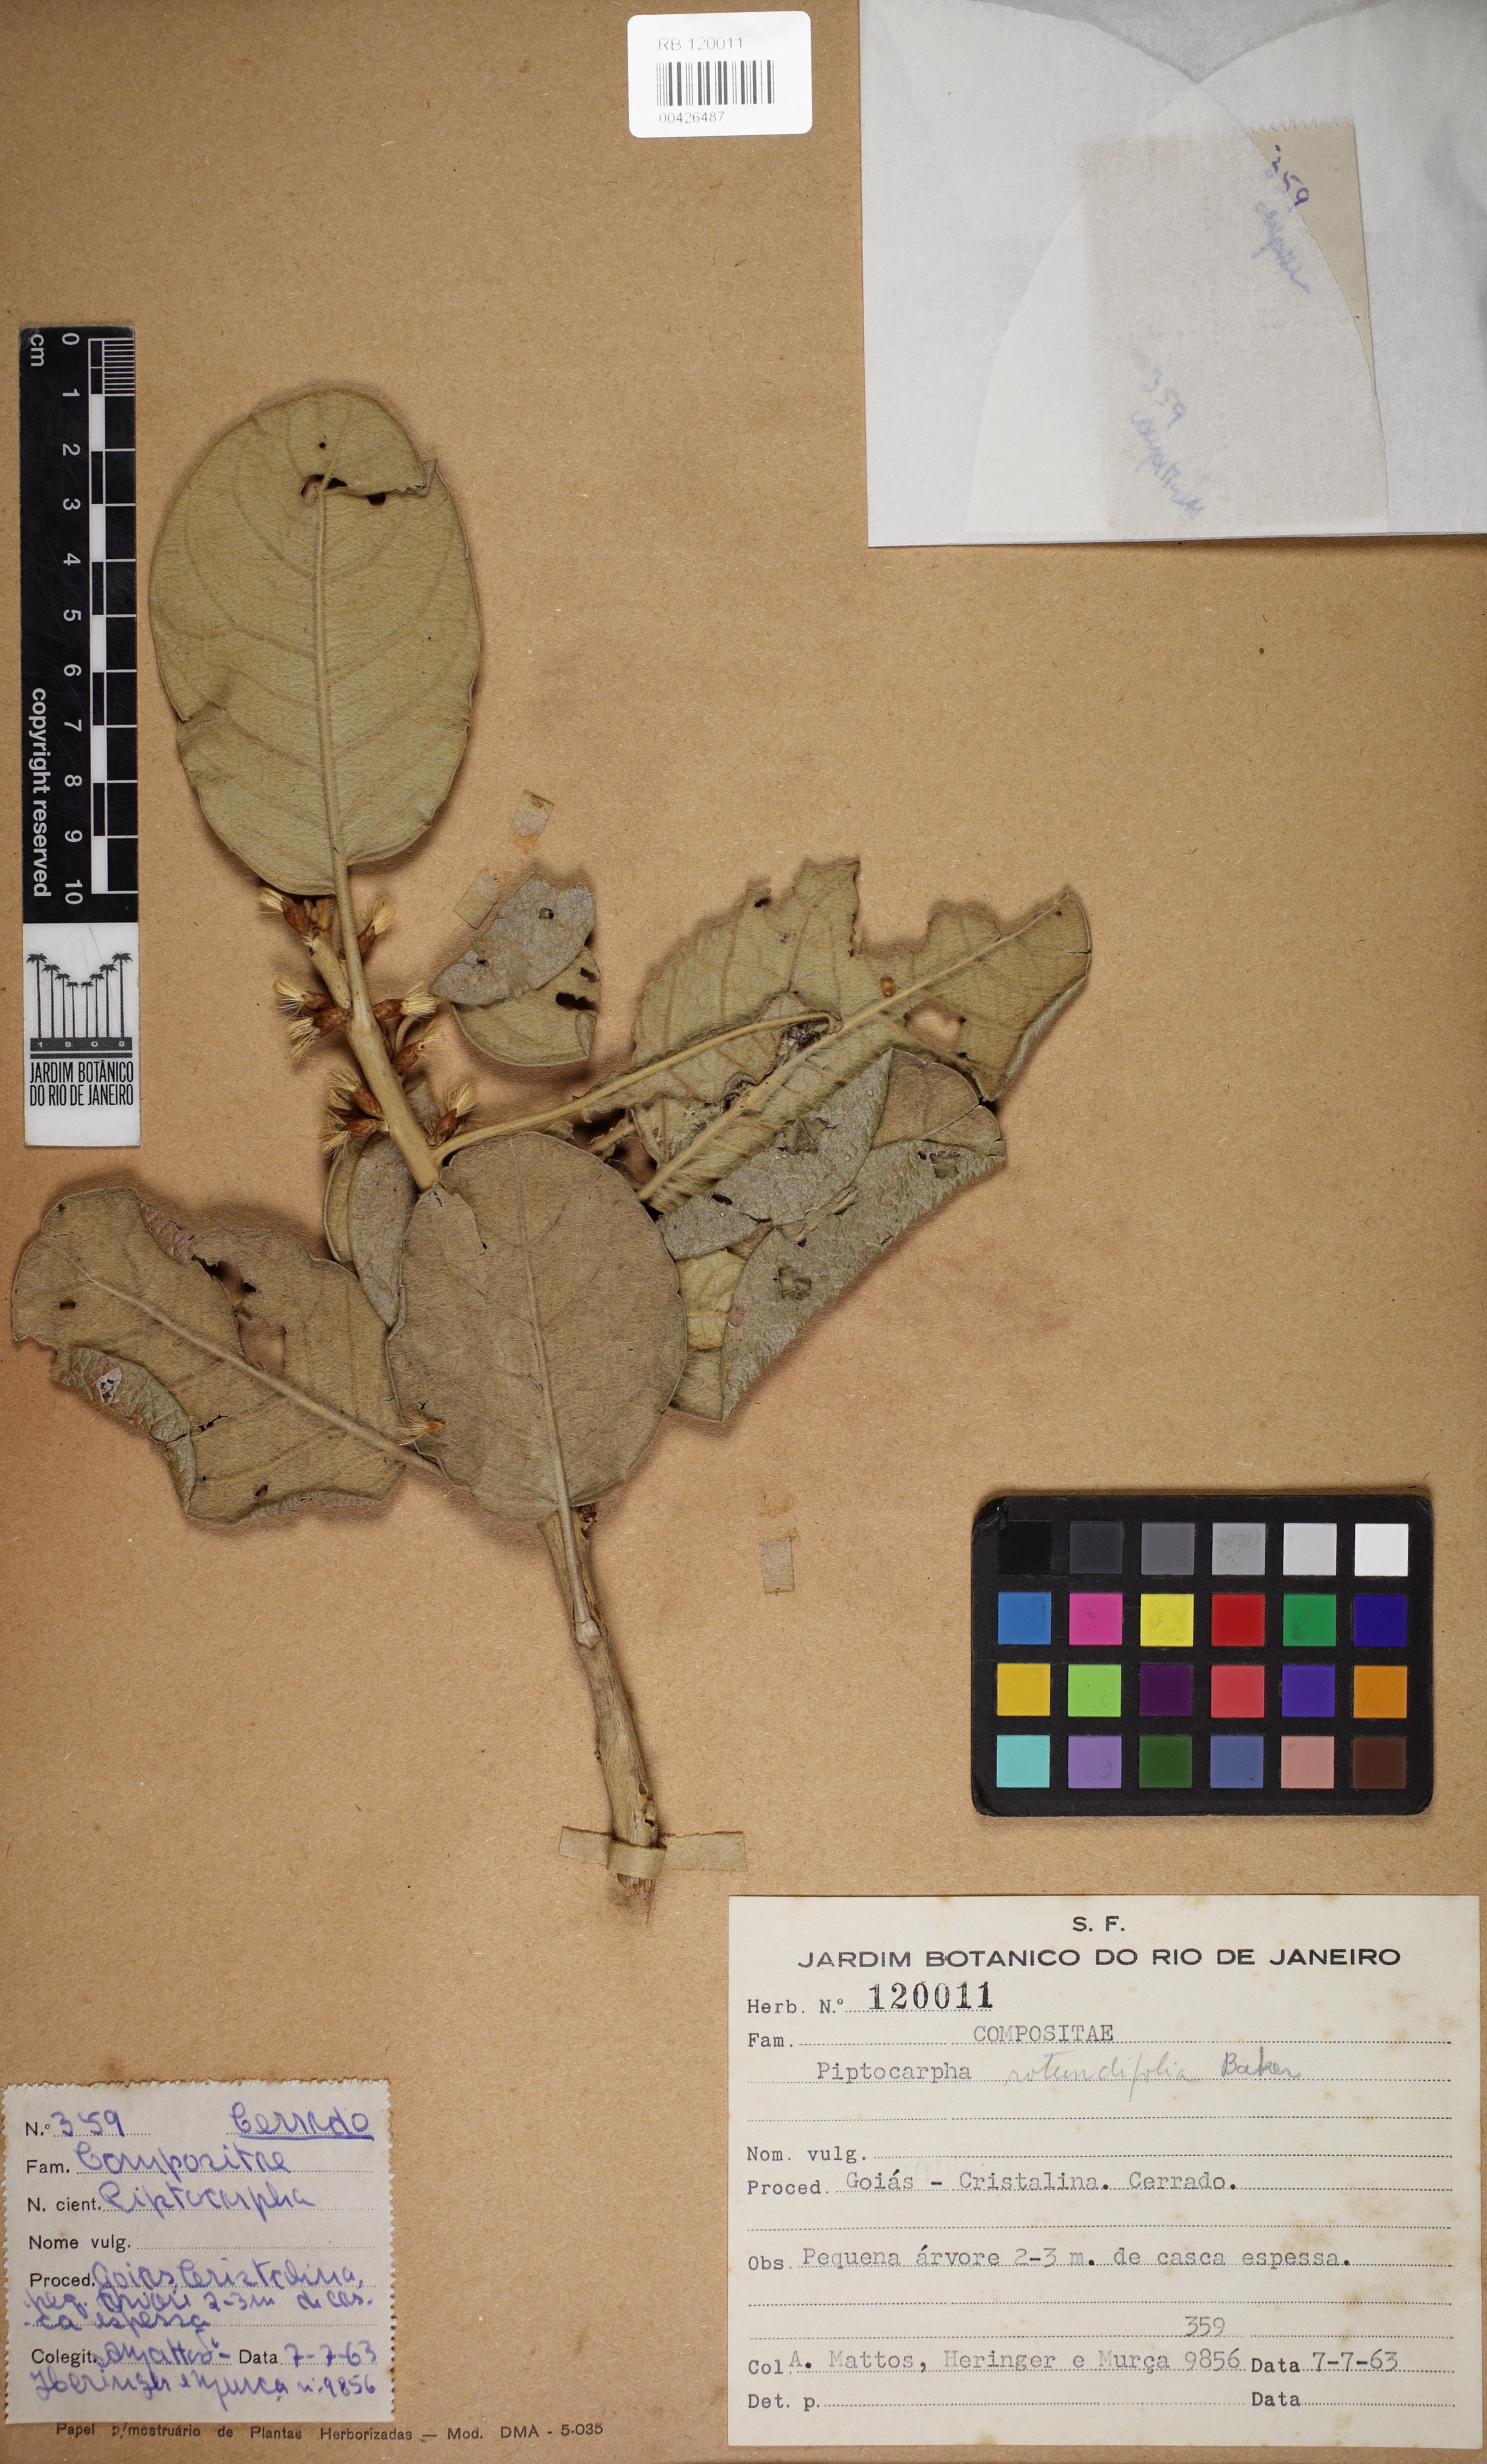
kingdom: Plantae
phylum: Tracheophyta
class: Magnoliopsida
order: Asterales
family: Asteraceae
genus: Piptocarpha
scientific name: Piptocarpha rotundifolia
